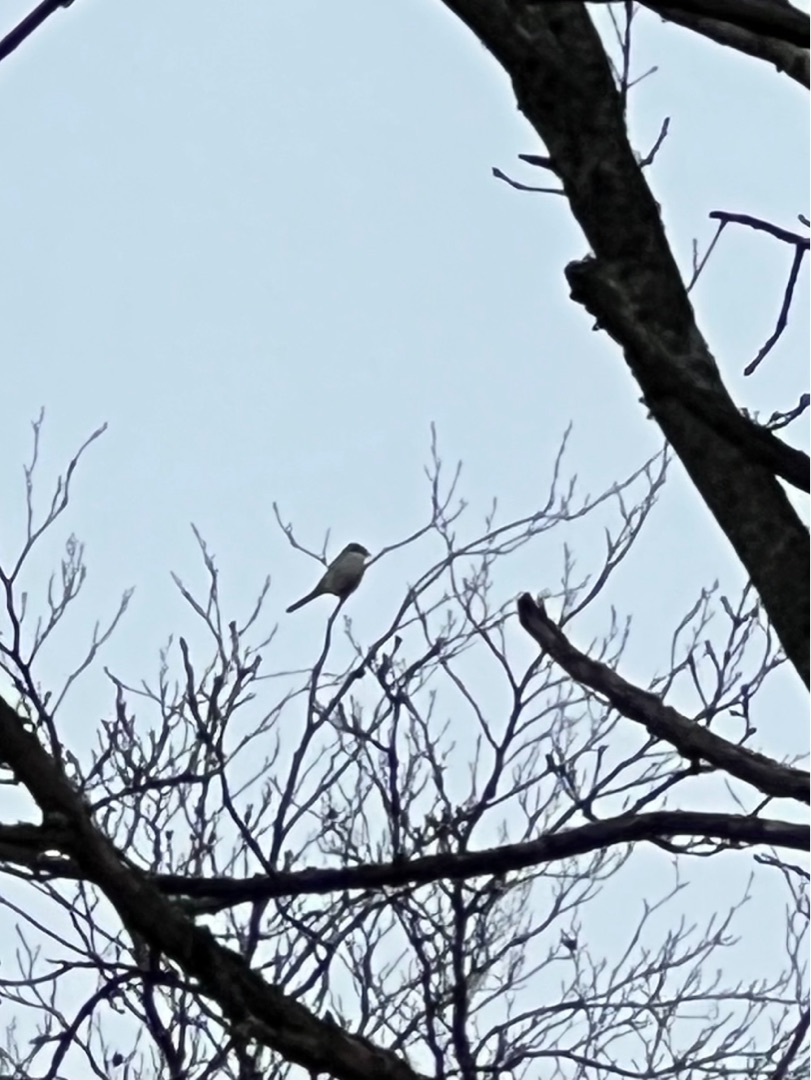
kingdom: Animalia
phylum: Chordata
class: Aves
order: Passeriformes
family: Laniidae
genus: Lanius
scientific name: Lanius excubitor
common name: Stor tornskade
